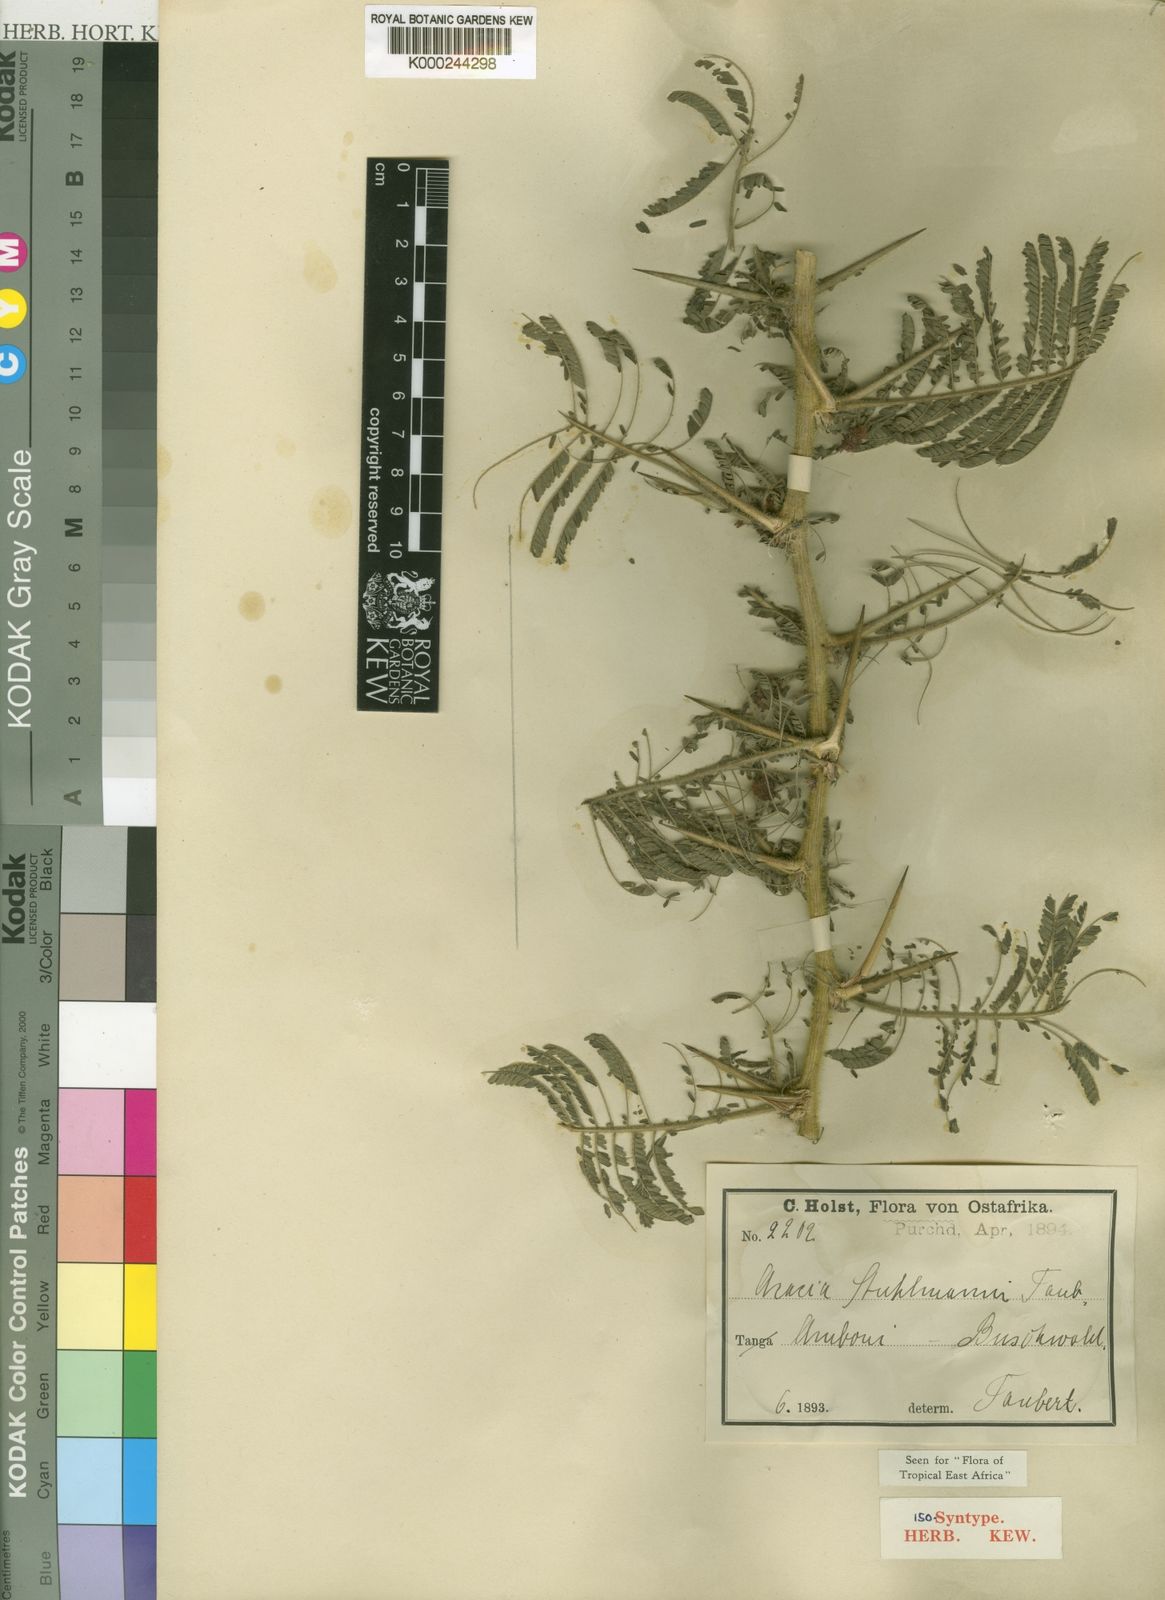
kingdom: Plantae
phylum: Tracheophyta
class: Magnoliopsida
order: Fabales
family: Fabaceae
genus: Vachellia
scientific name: Vachellia stuhlmannii
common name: Vlei thorn
